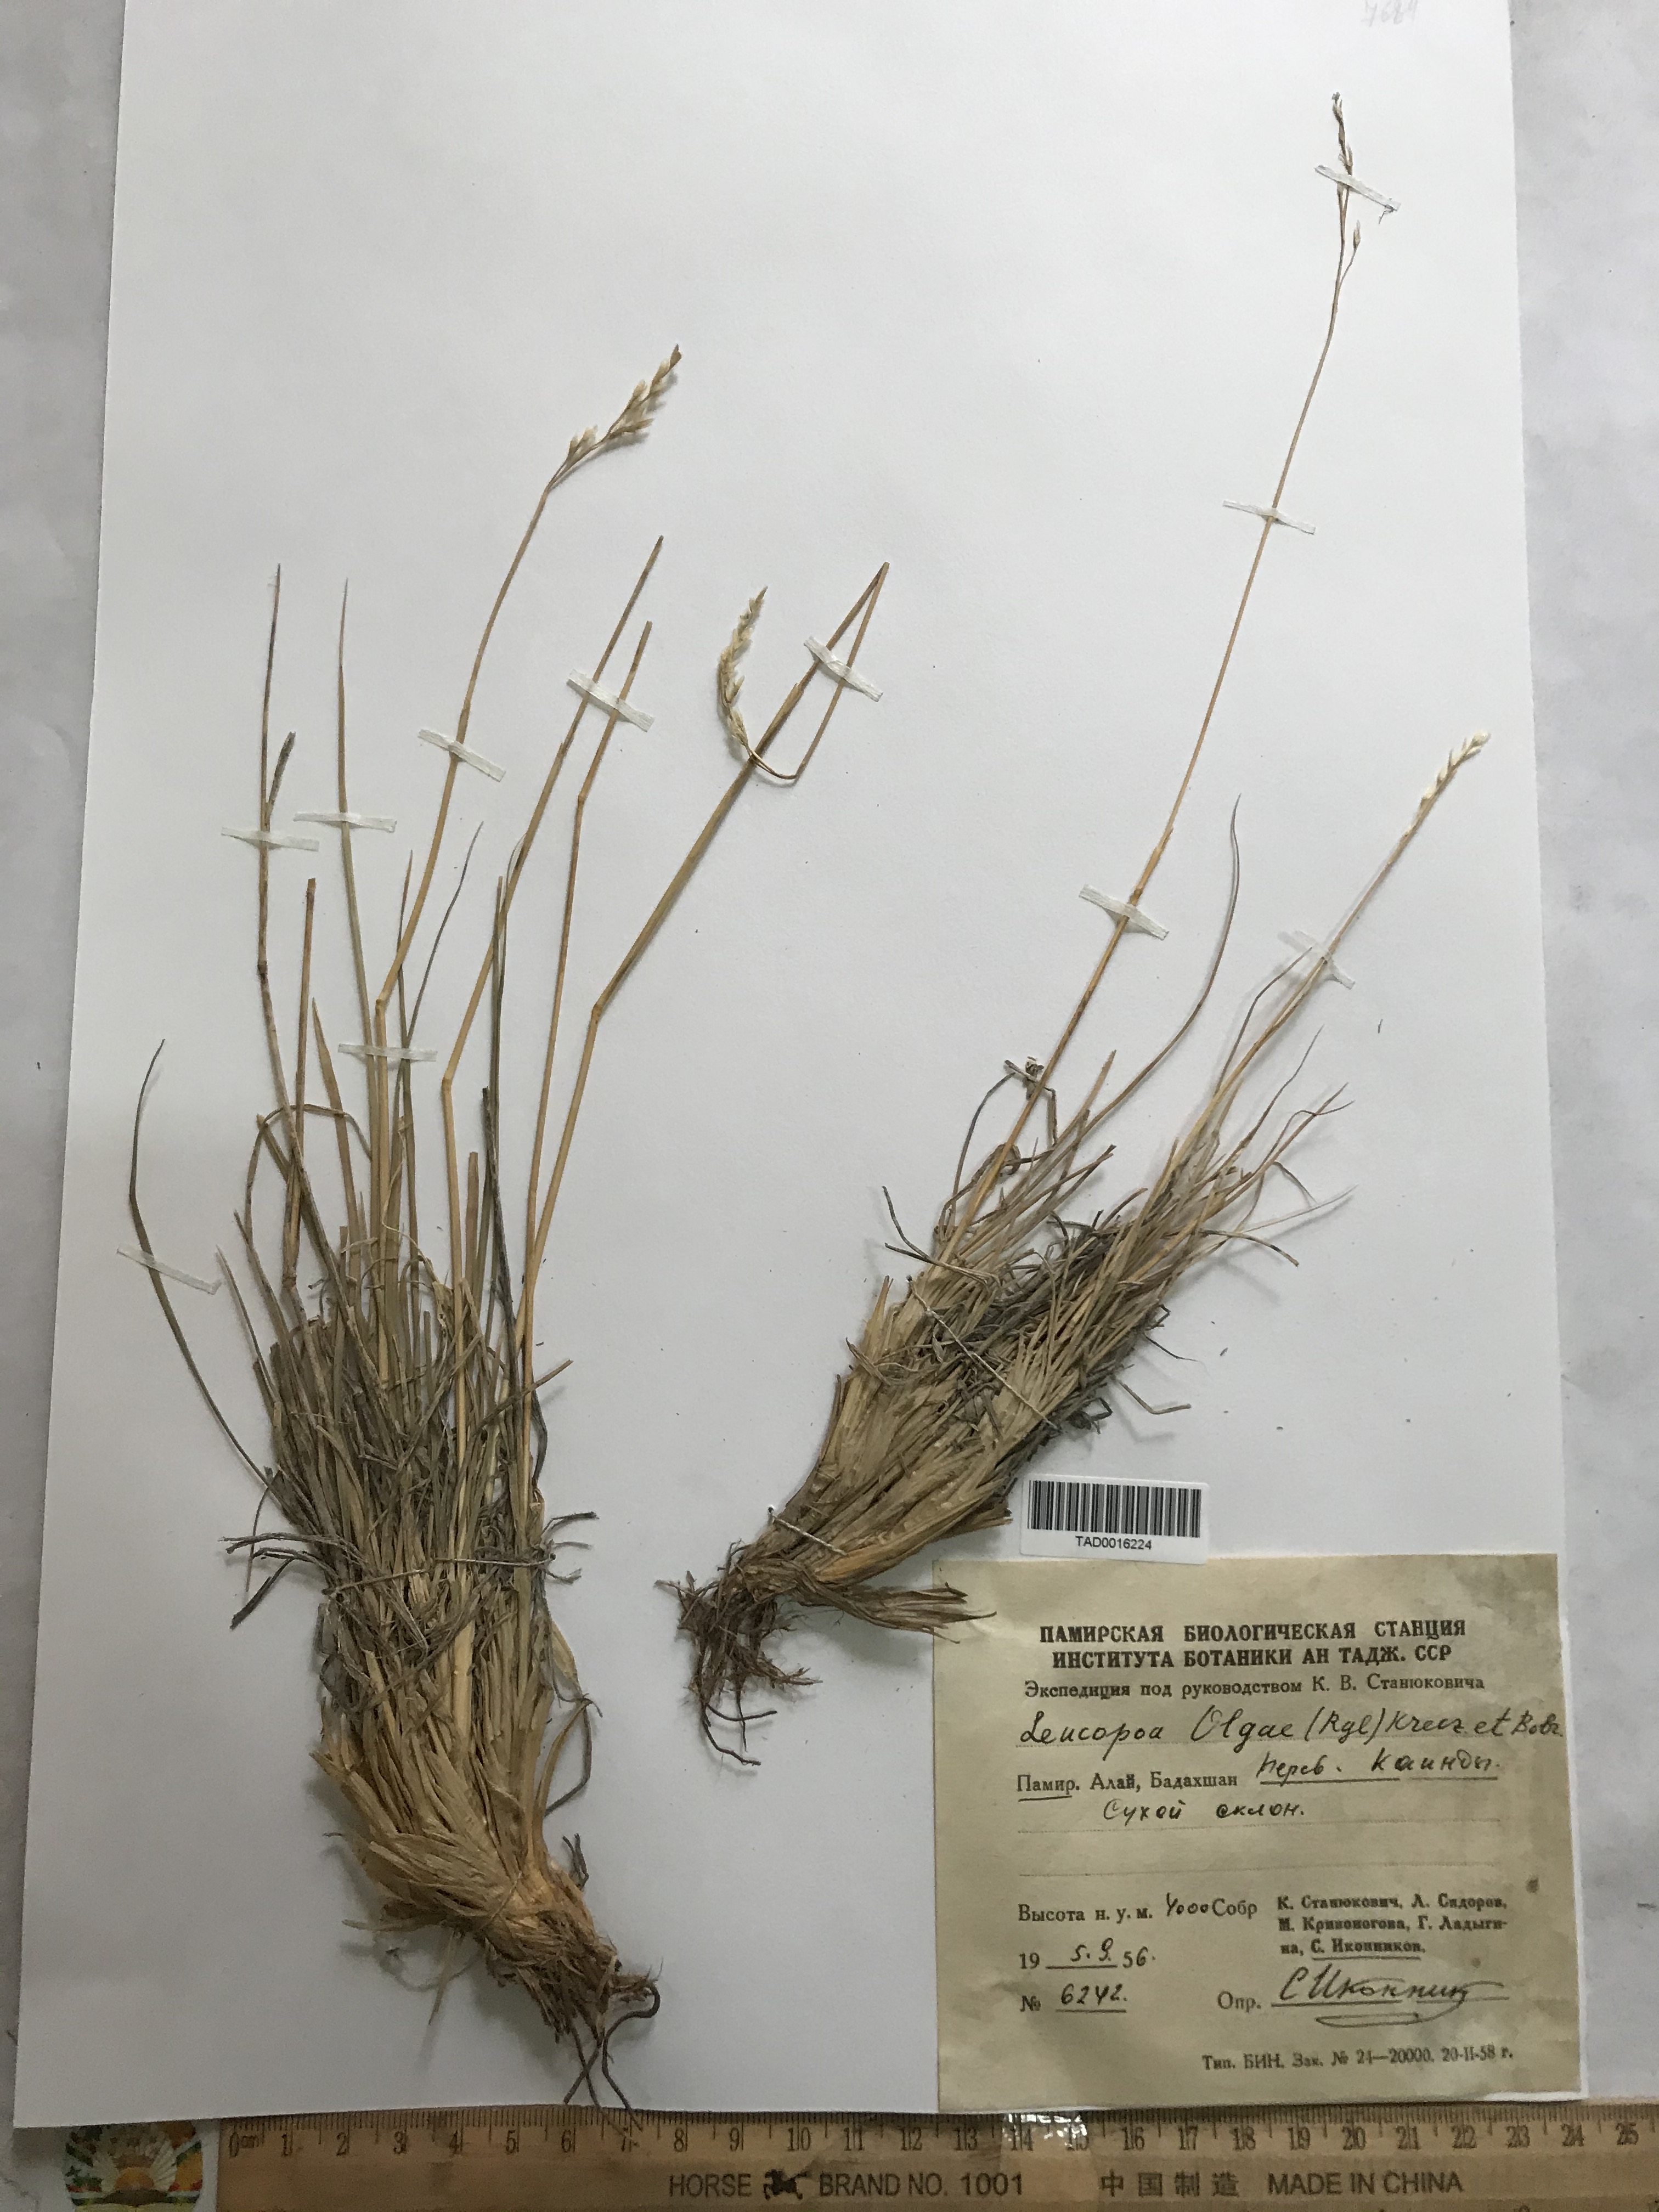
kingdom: Plantae
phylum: Tracheophyta
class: Liliopsida
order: Poales
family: Poaceae
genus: Festuca
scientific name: Festuca
